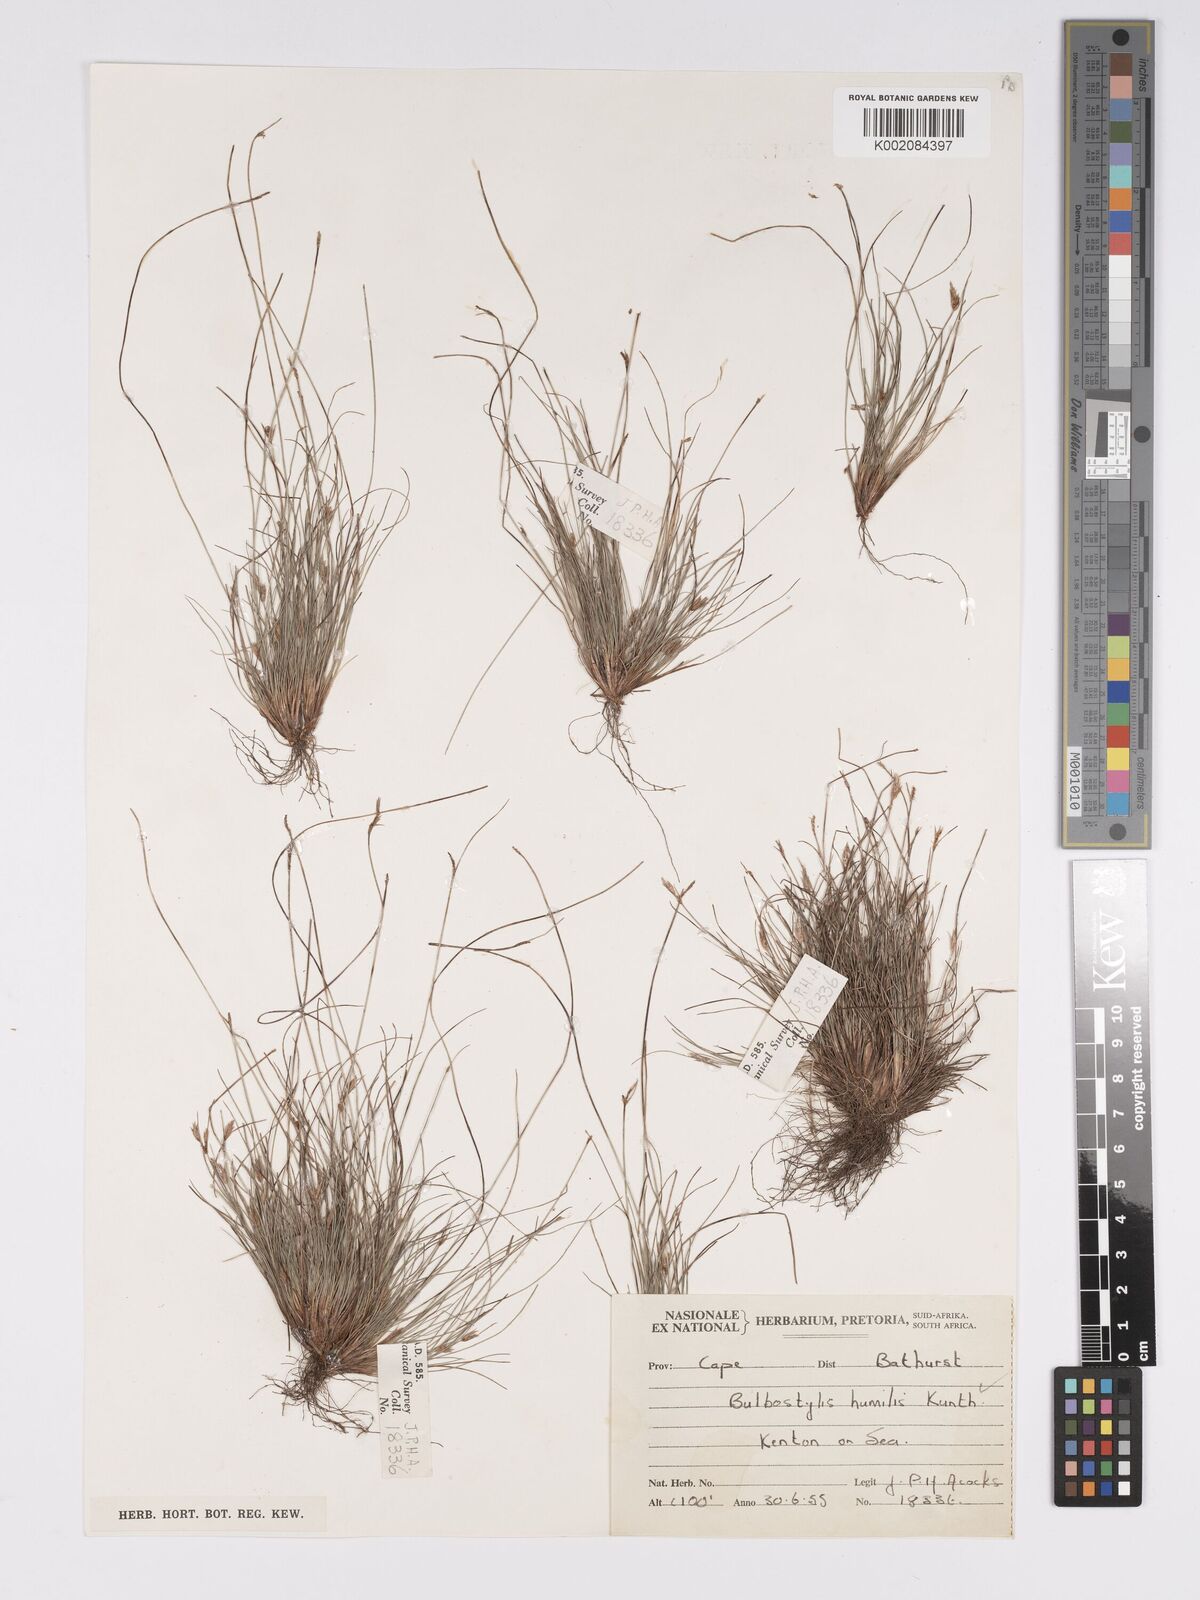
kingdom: Plantae
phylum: Tracheophyta
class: Liliopsida
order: Poales
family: Cyperaceae
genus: Bulbostylis
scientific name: Bulbostylis humilis
